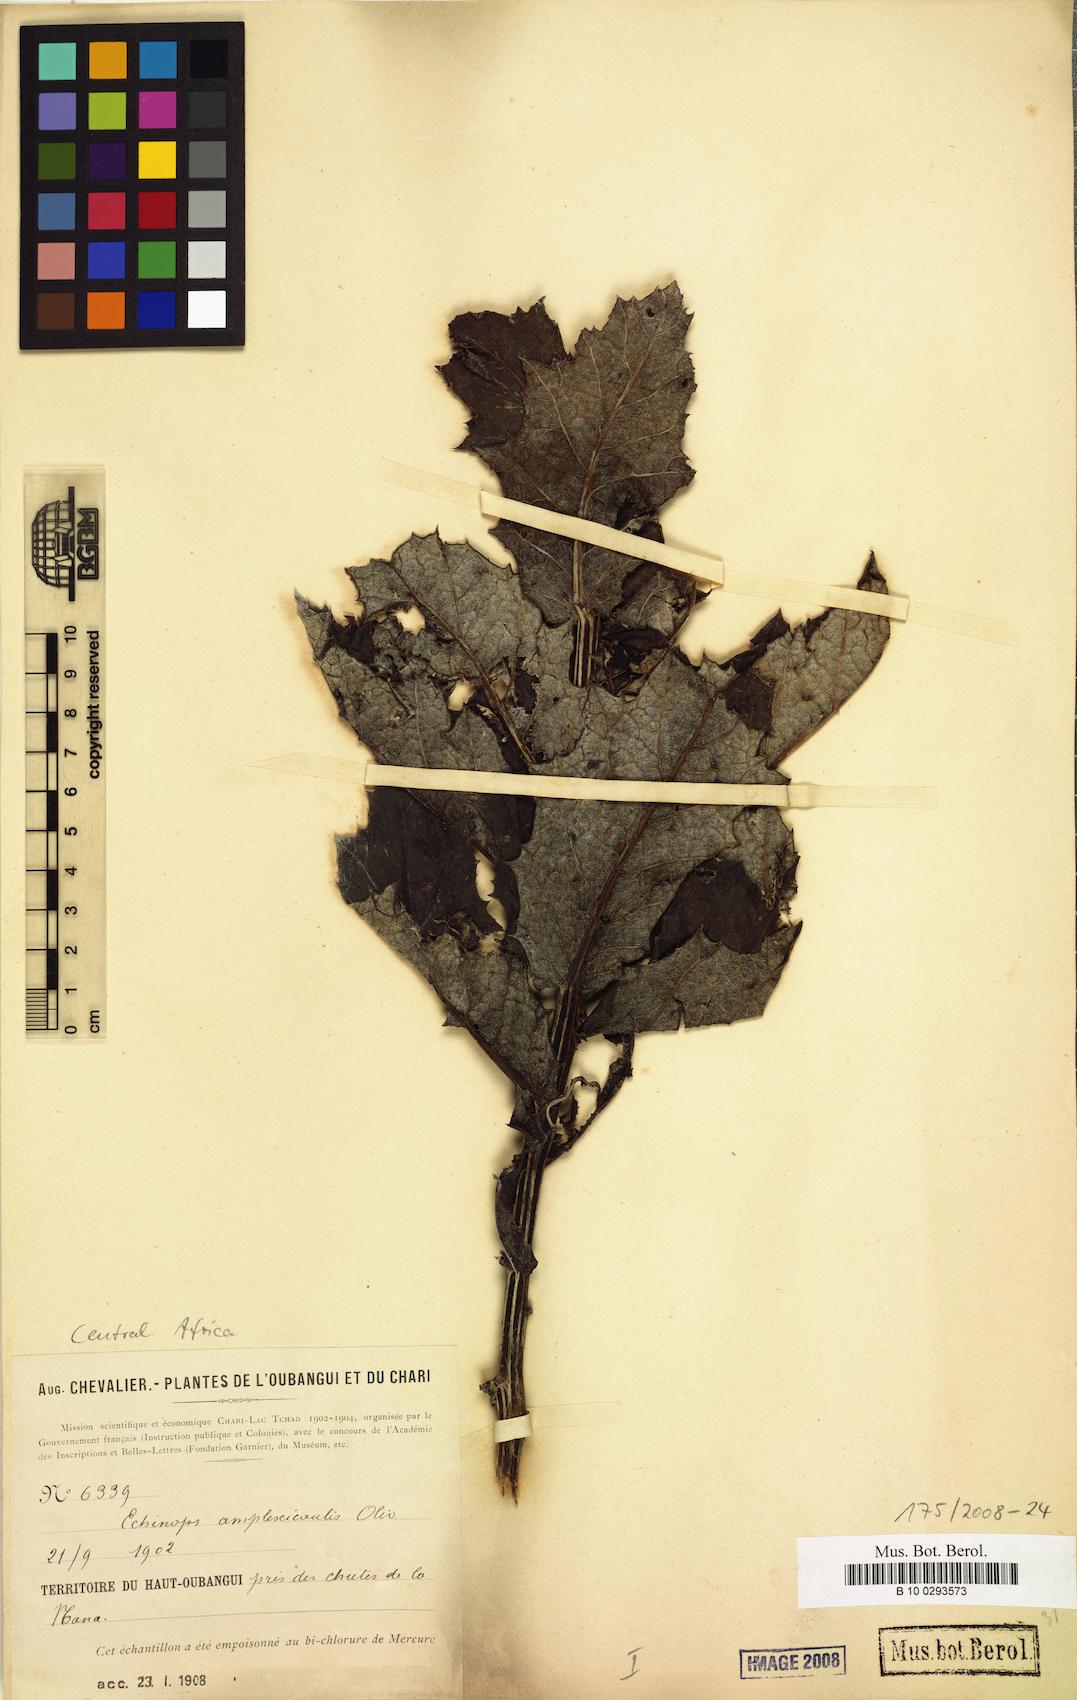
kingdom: Plantae
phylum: Tracheophyta
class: Magnoliopsida
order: Asterales
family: Asteraceae
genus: Echinops
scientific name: Echinops amplexicaulis
